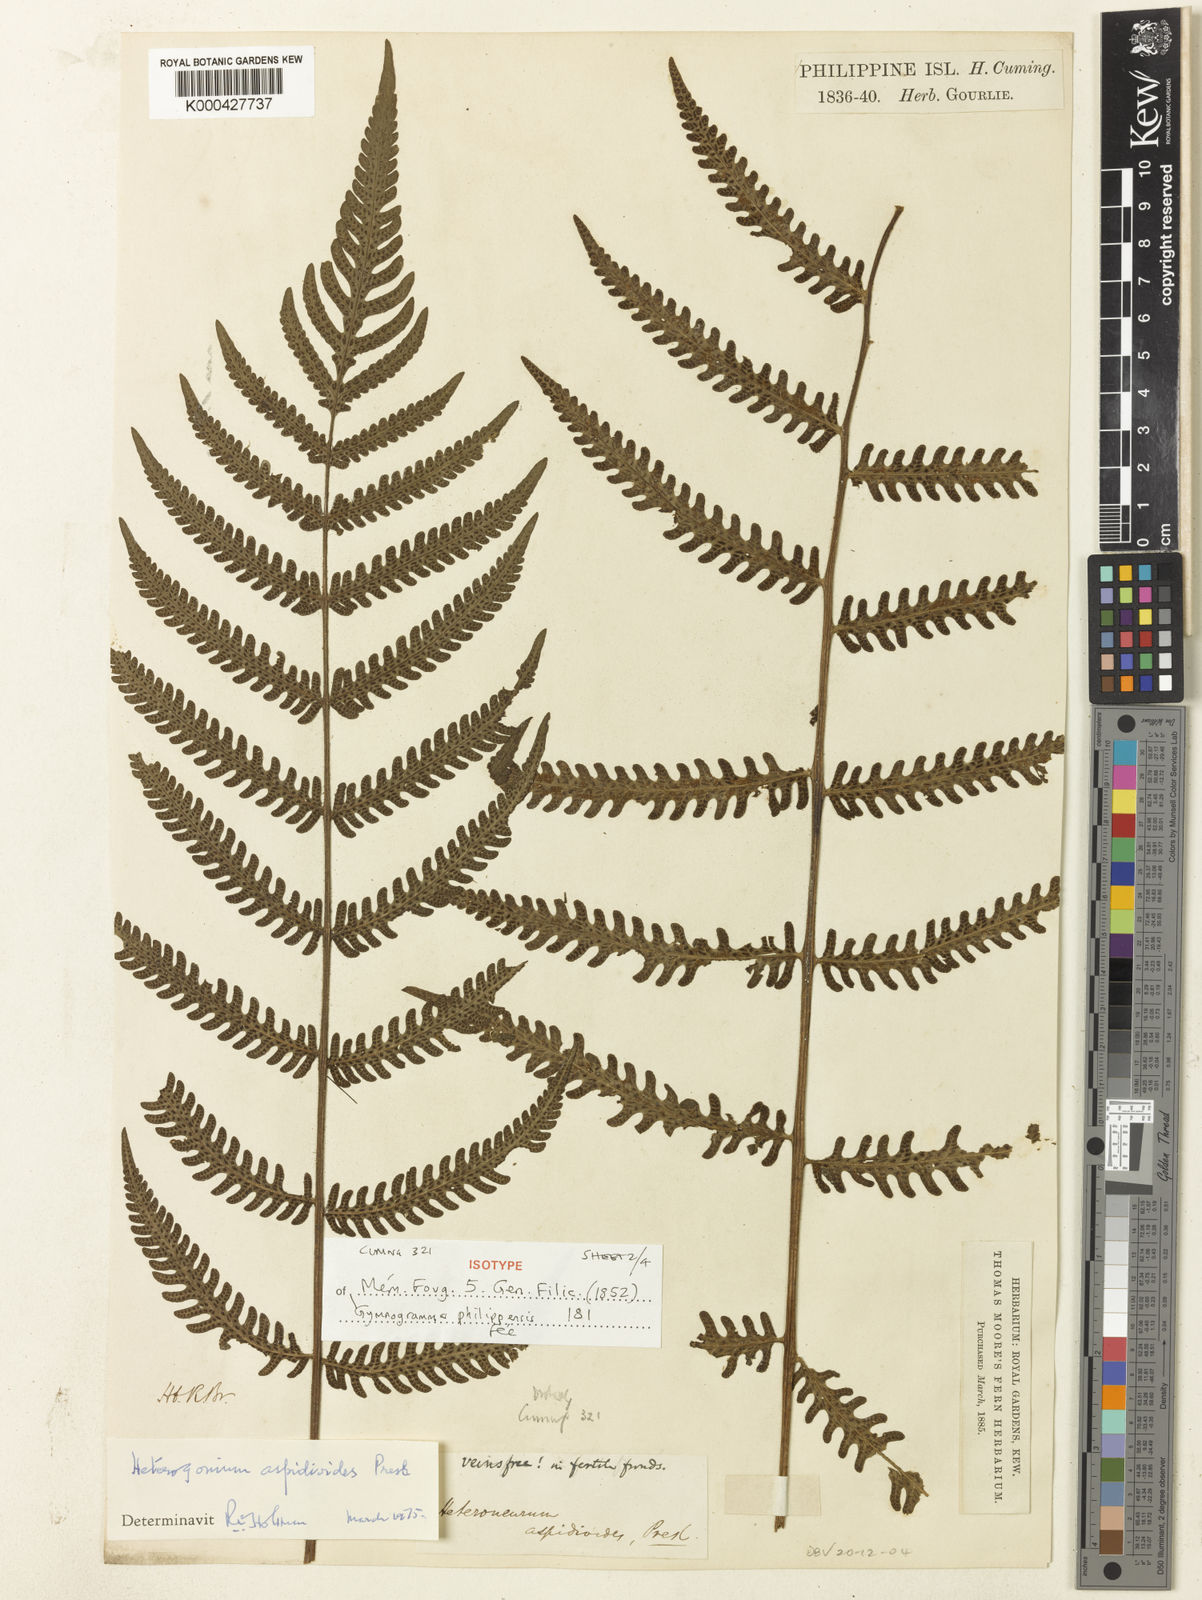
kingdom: Plantae
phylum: Tracheophyta
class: Polypodiopsida
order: Polypodiales
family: Tectariaceae
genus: Tectaria
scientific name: Tectaria aspidioides
